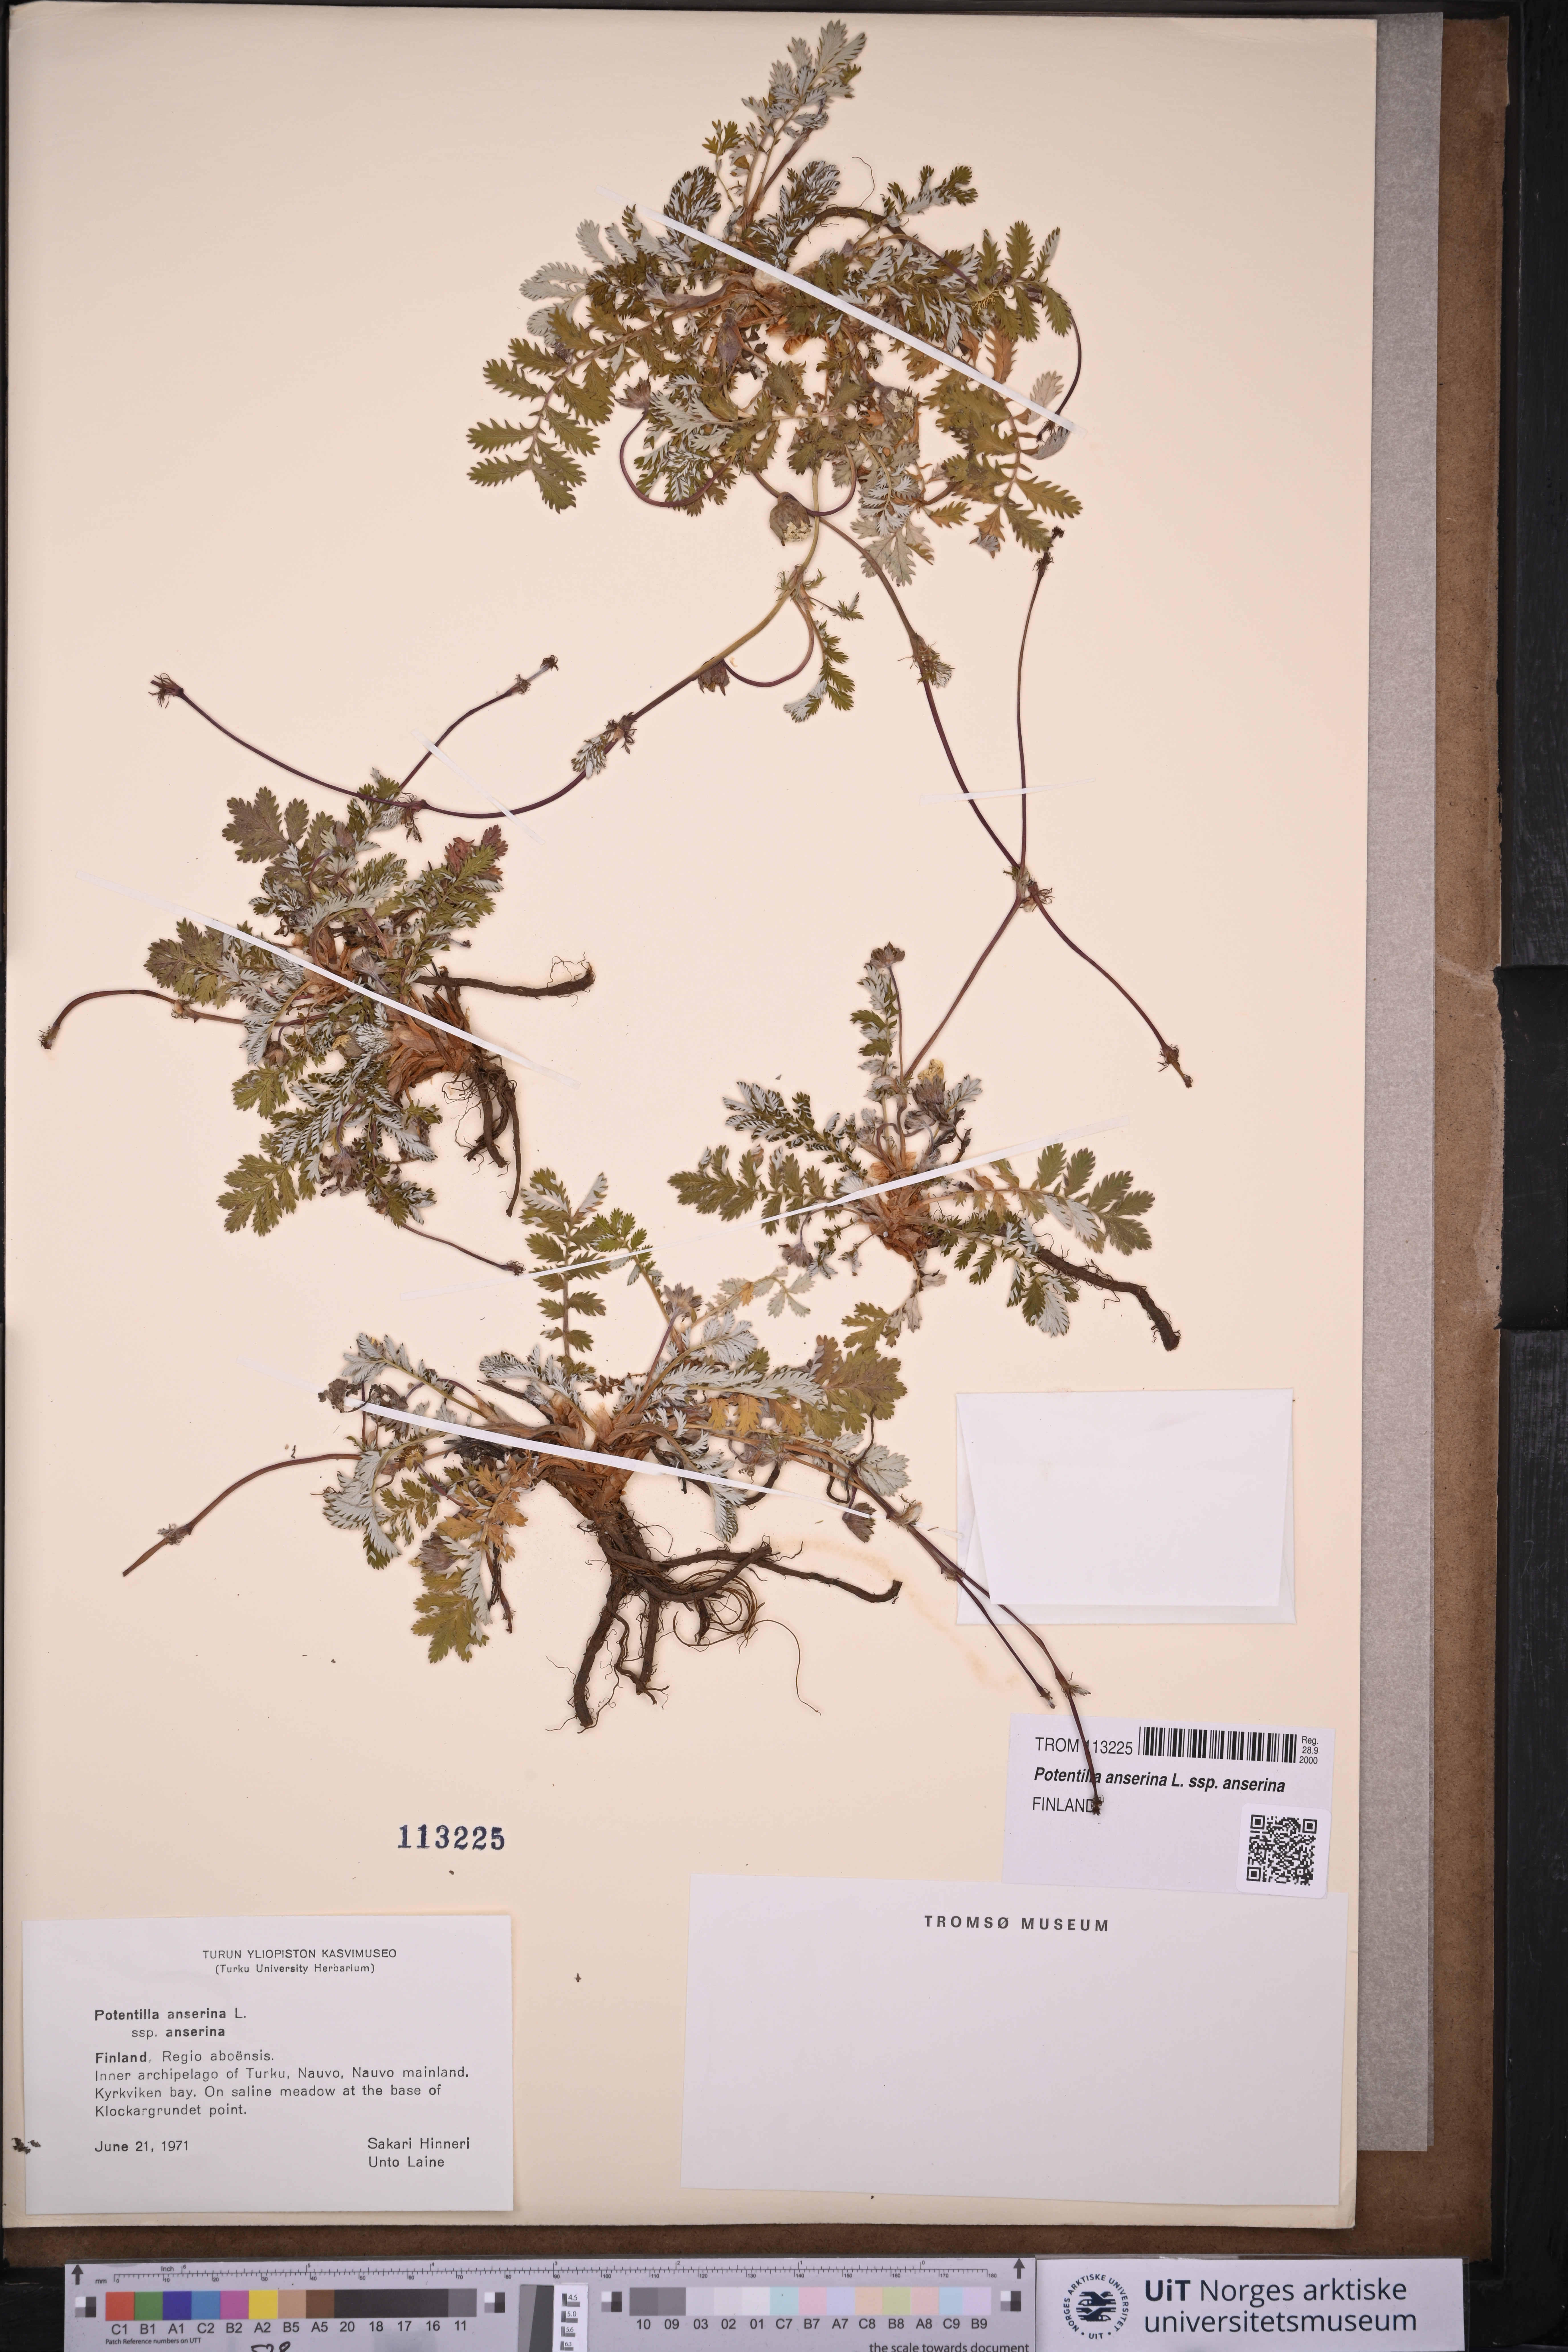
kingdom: Plantae
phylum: Tracheophyta
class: Magnoliopsida
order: Rosales
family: Rosaceae
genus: Argentina
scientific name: Argentina anserina
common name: Common silverweed
